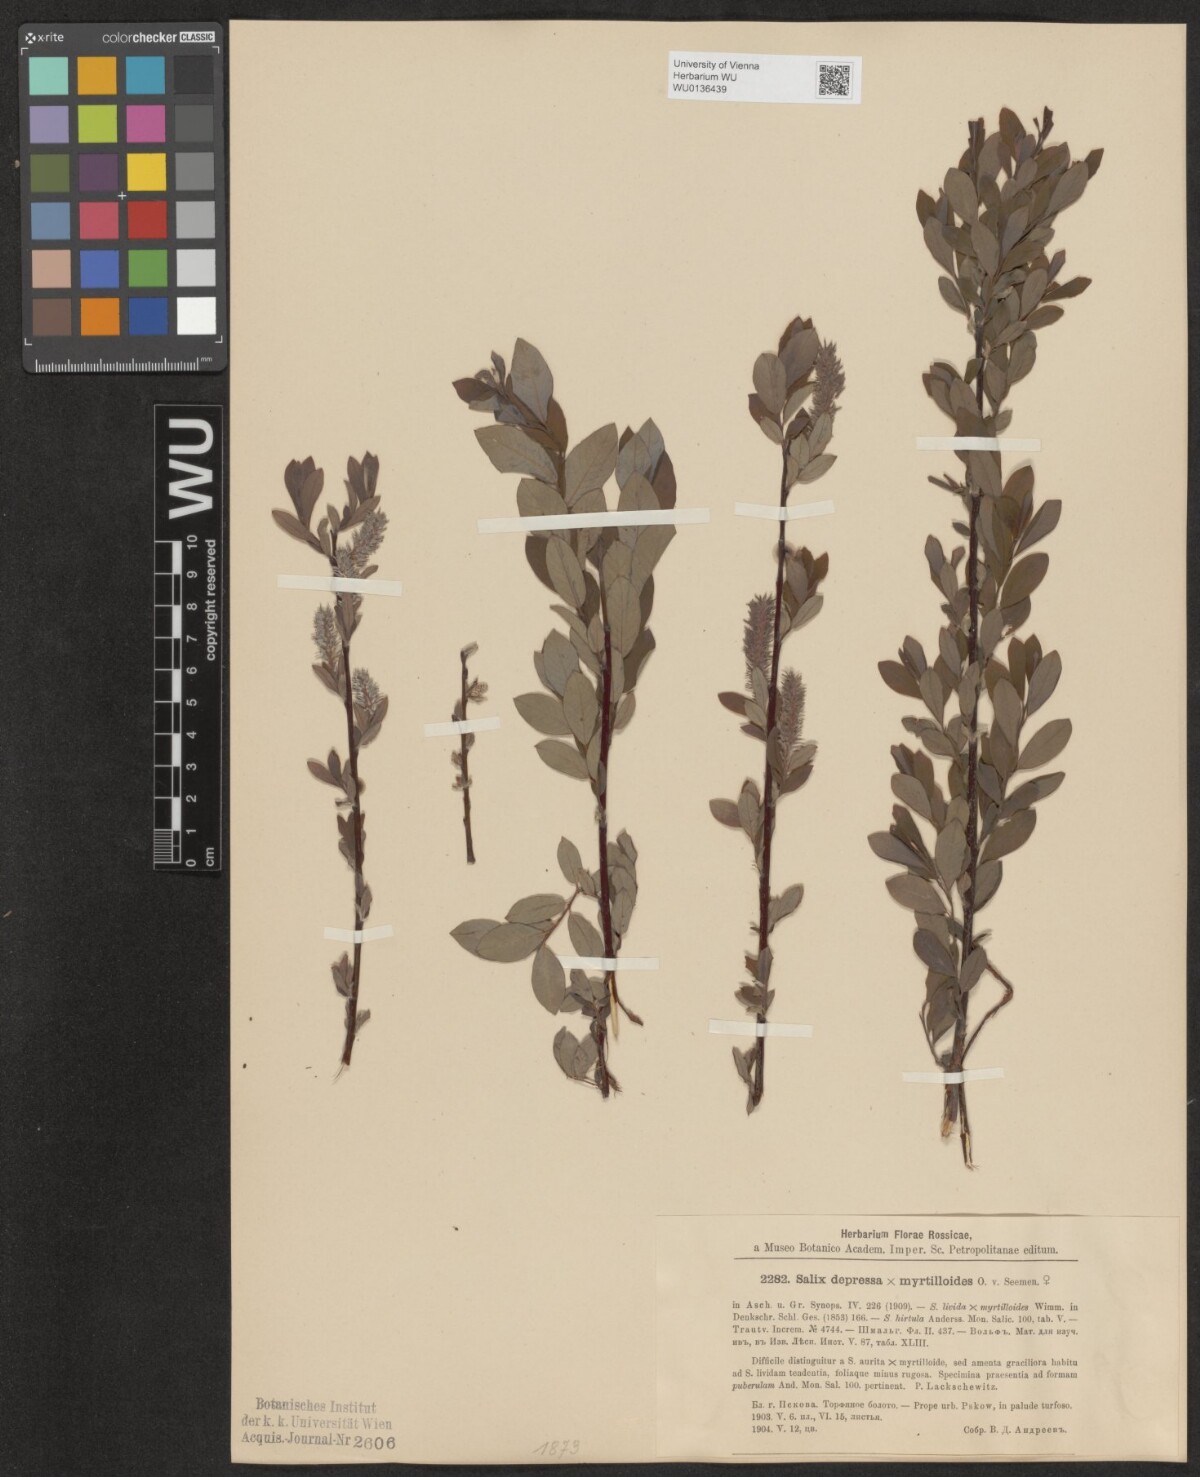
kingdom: Plantae
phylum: Tracheophyta
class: Magnoliopsida
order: Malpighiales
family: Salicaceae
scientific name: Salicaceae
